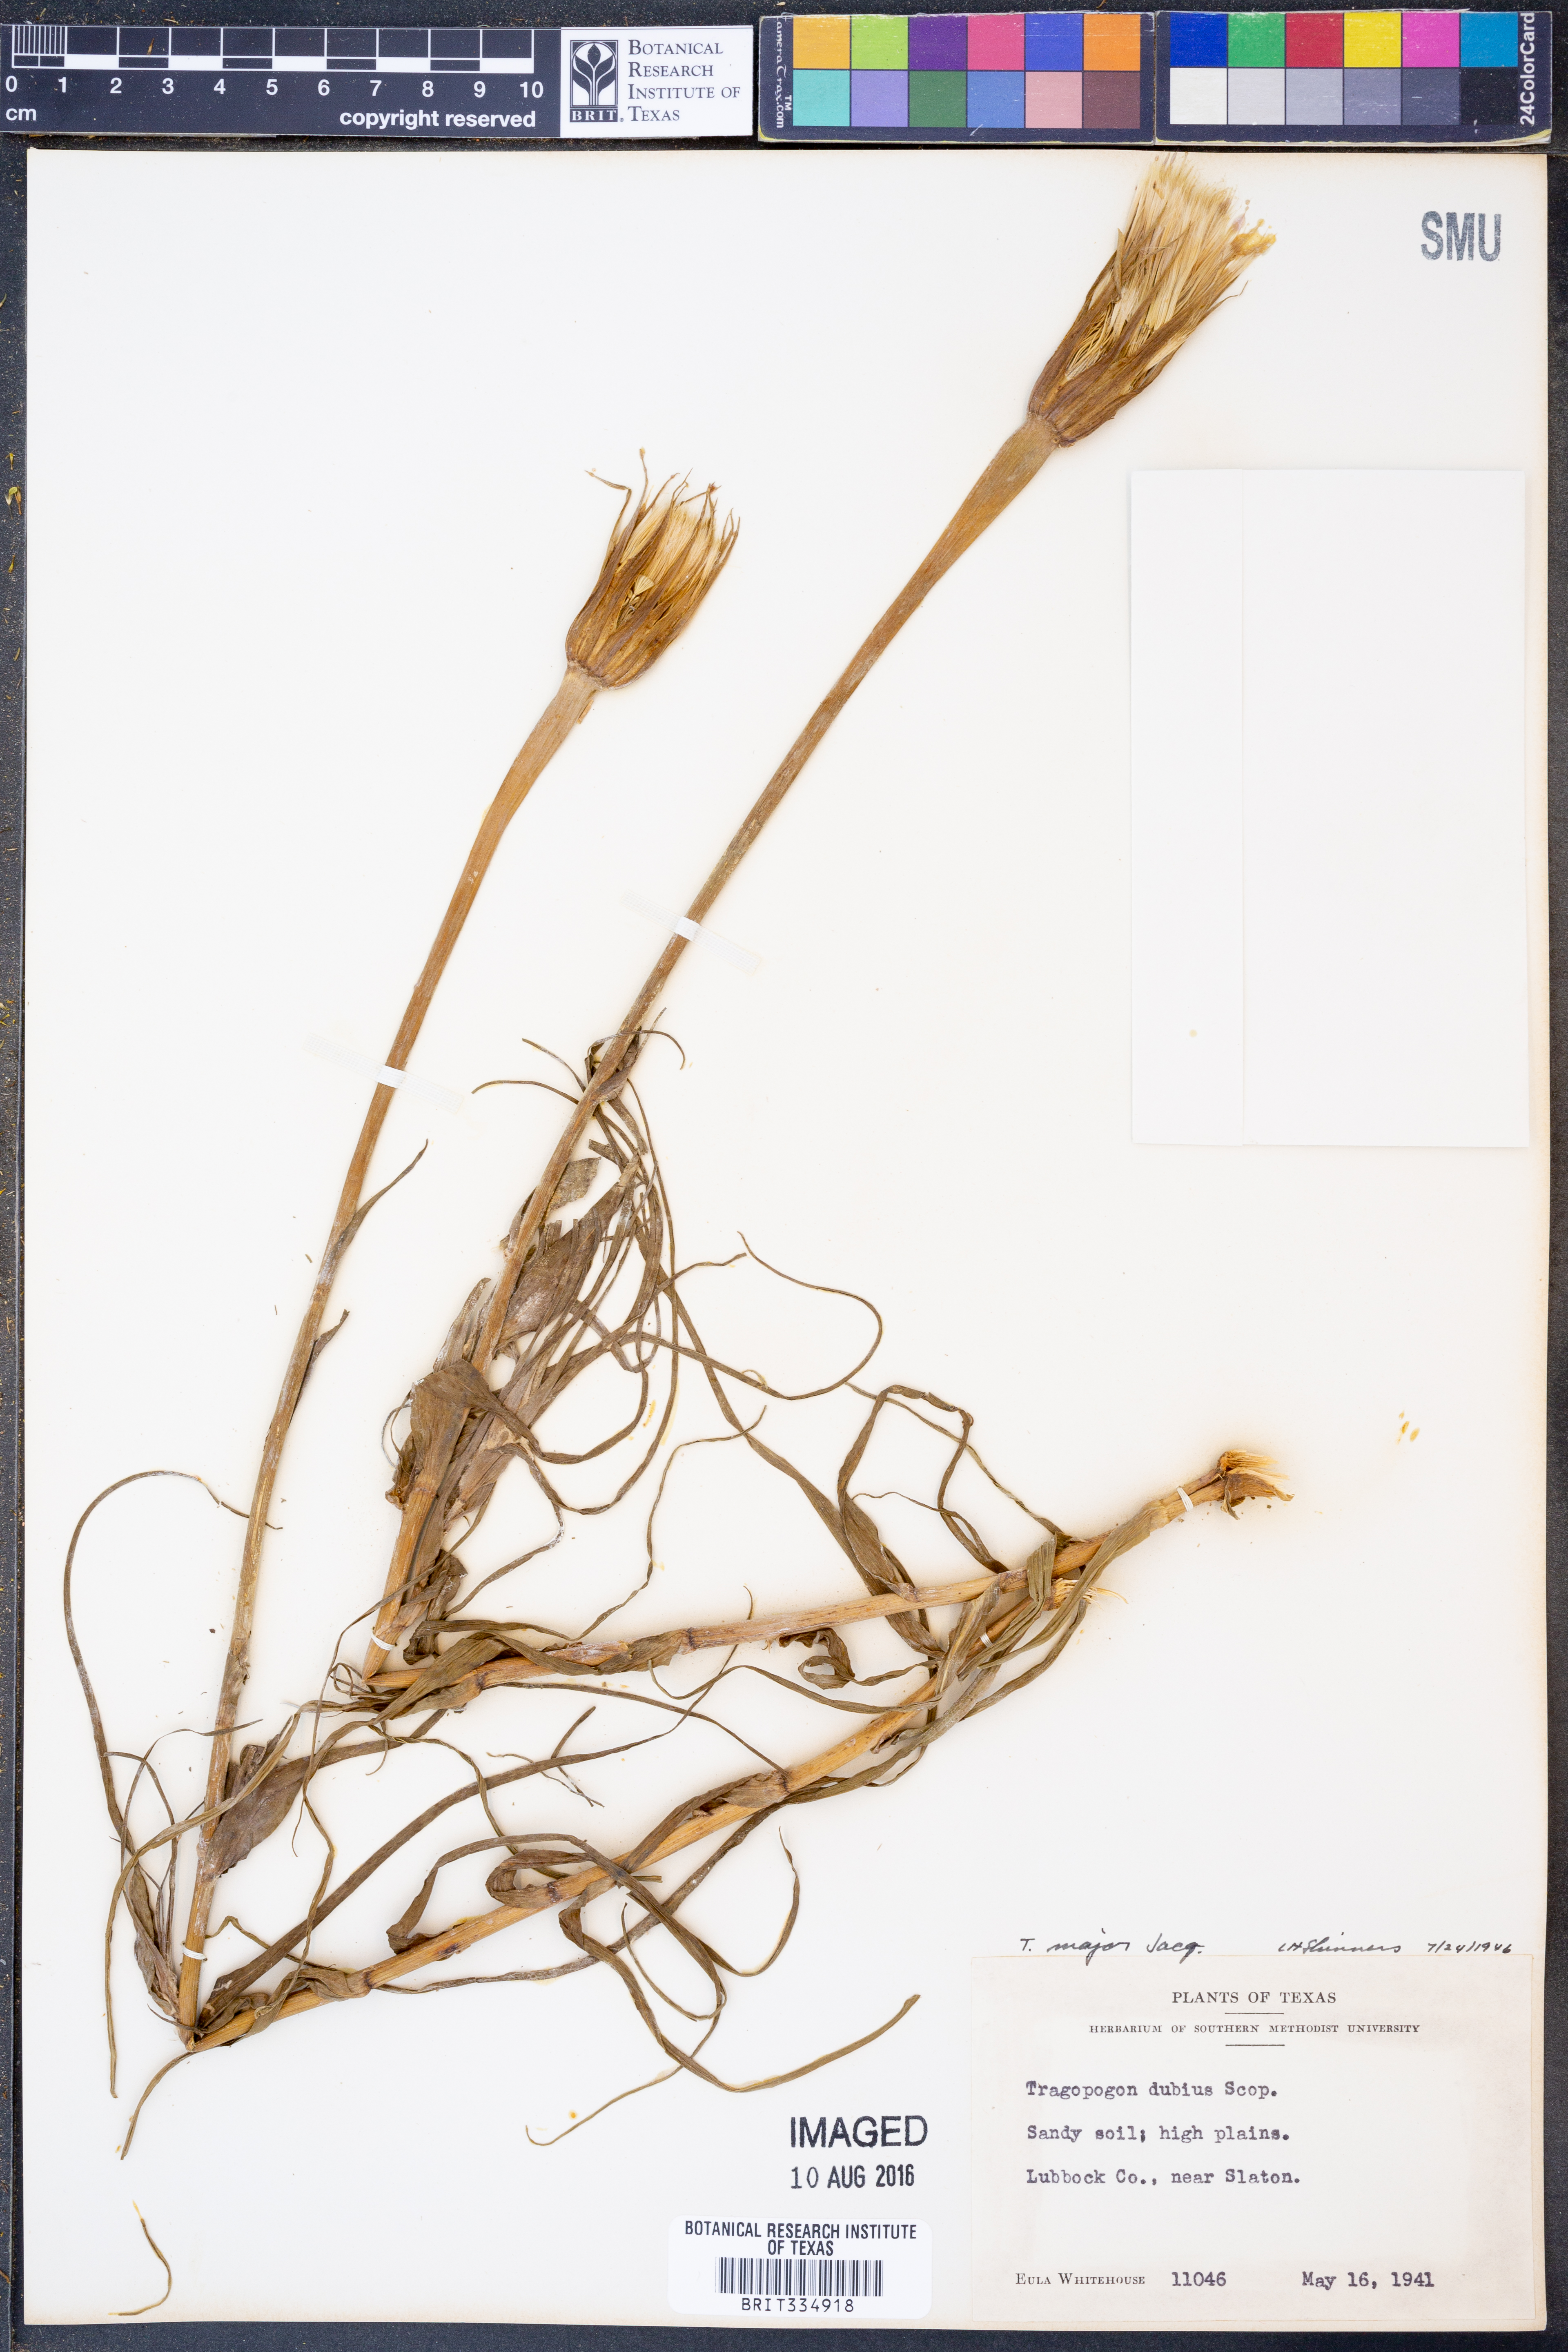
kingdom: Plantae
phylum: Tracheophyta
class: Magnoliopsida
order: Asterales
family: Asteraceae
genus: Tragopogon
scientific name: Tragopogon dubius
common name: Yellow salsify
